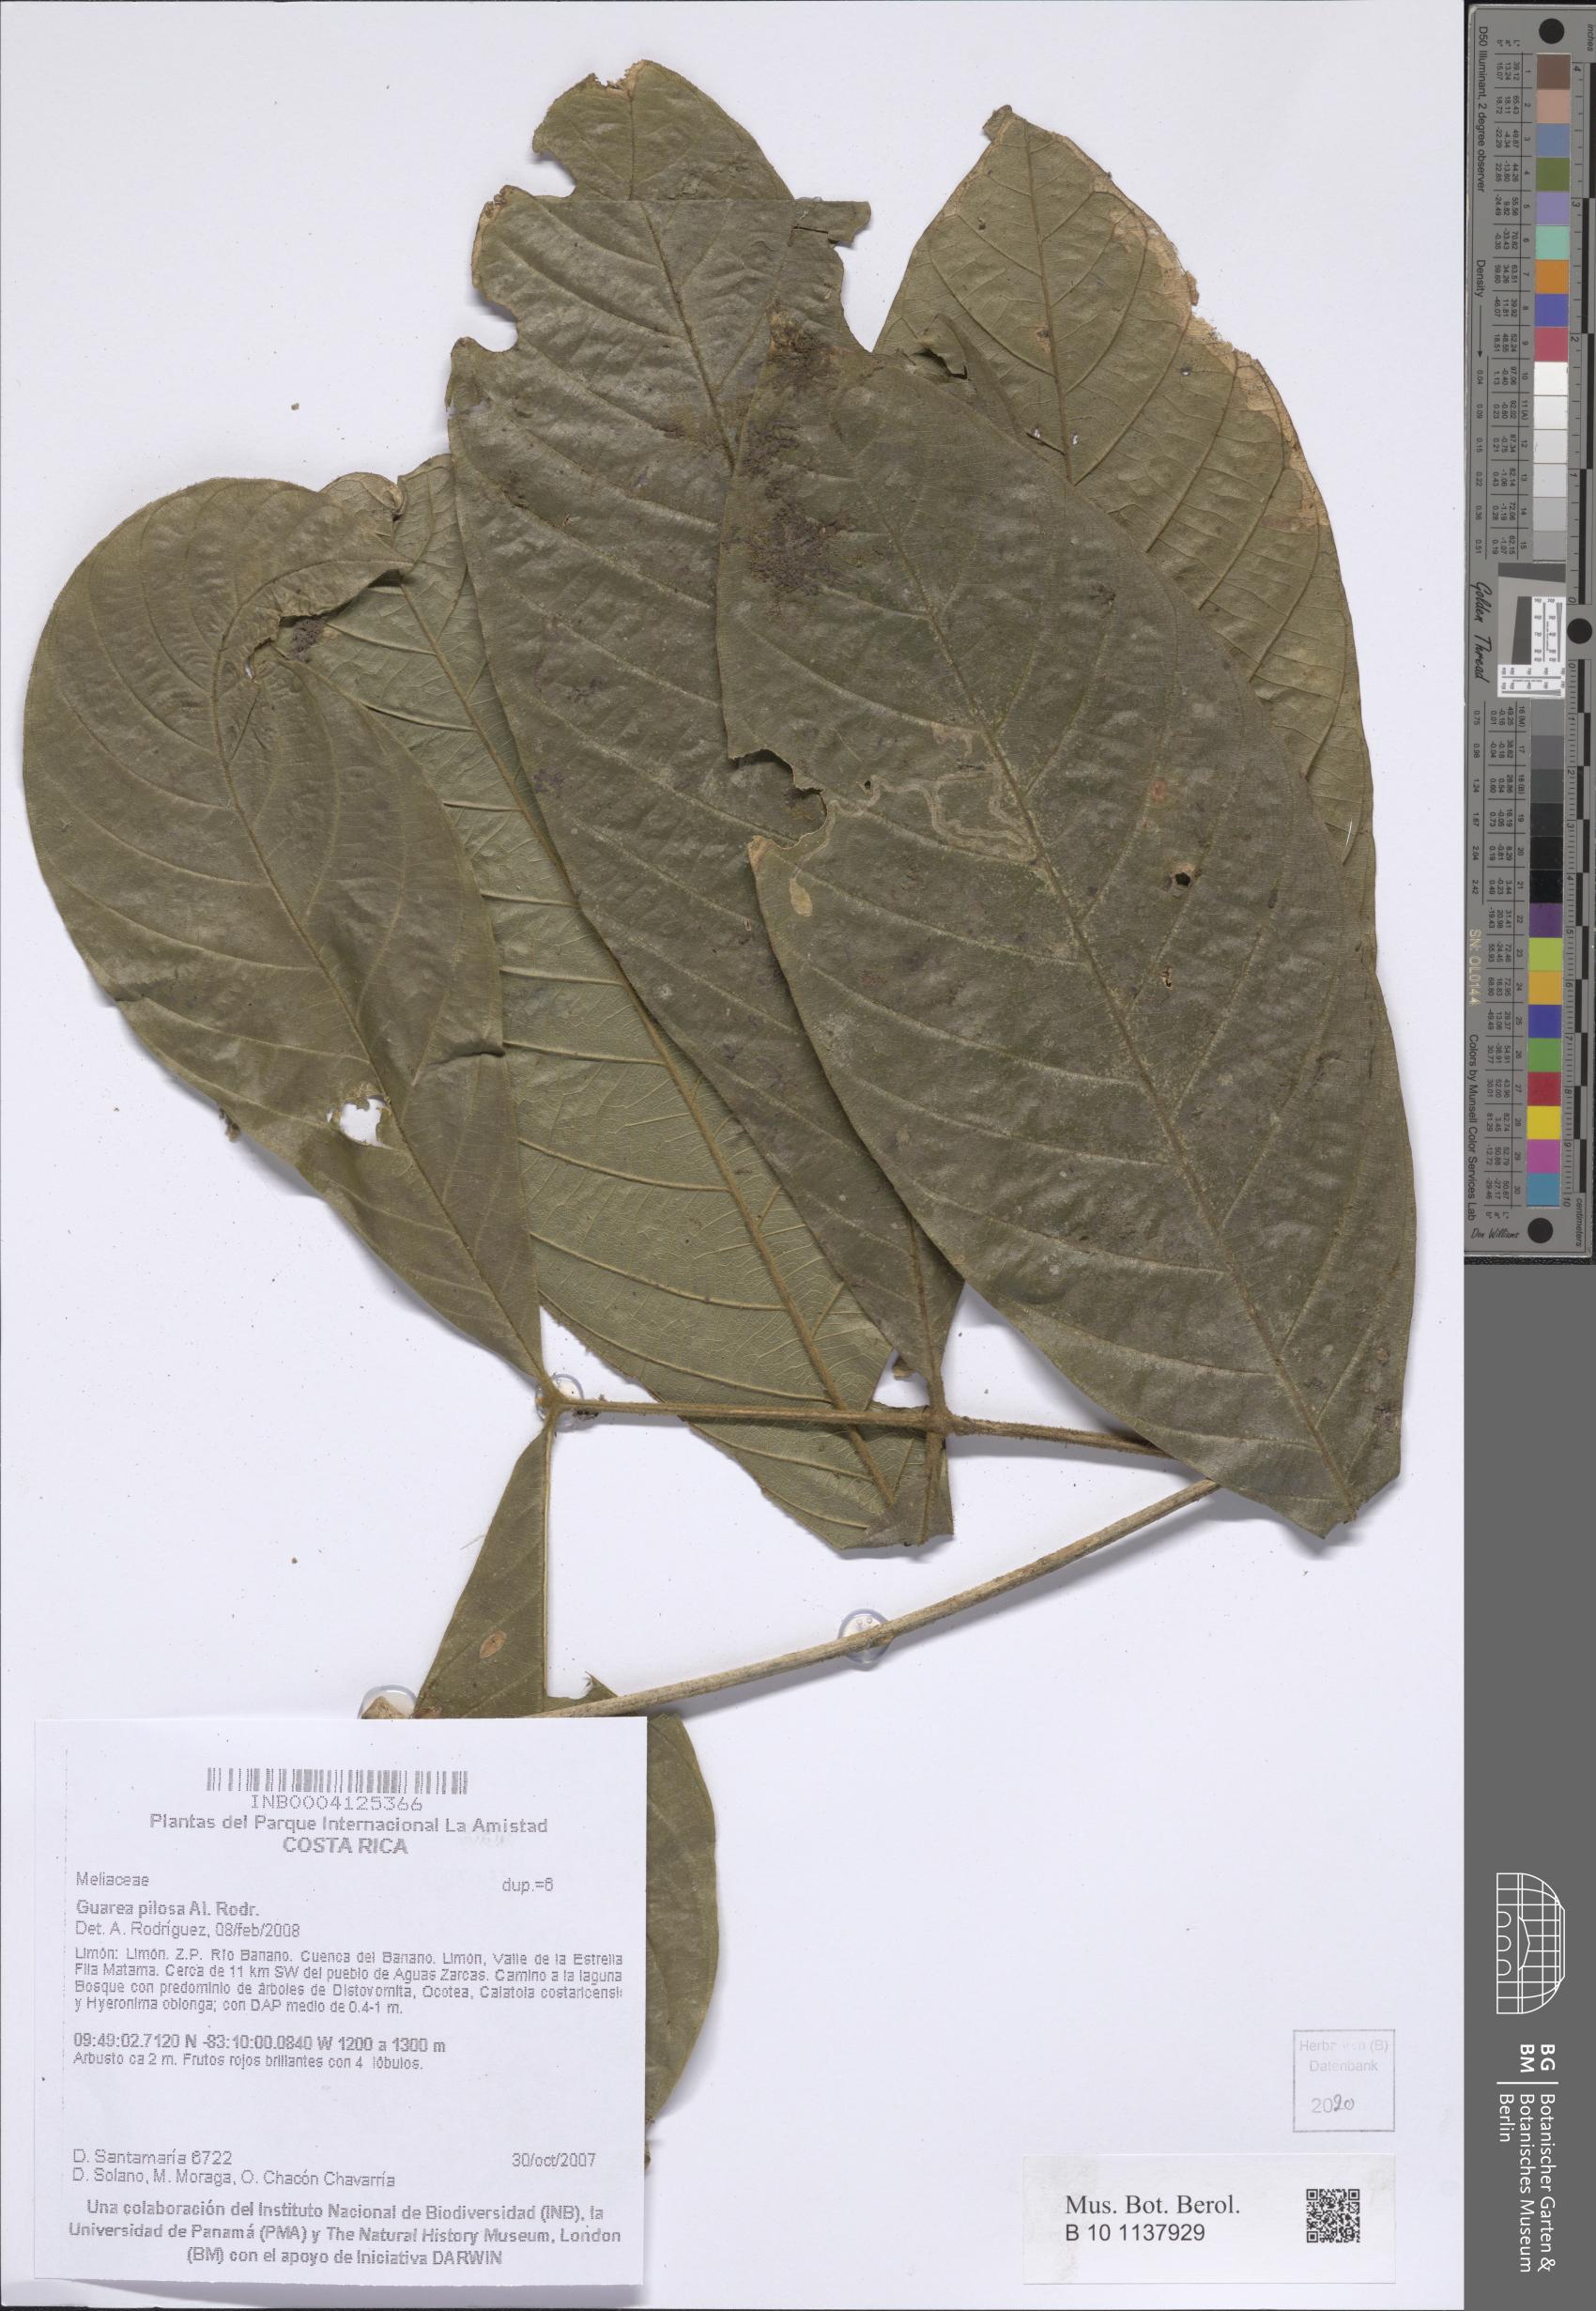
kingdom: Plantae
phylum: Tracheophyta
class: Magnoliopsida
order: Sapindales
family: Meliaceae
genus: Guarea
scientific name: Guarea pilosa
